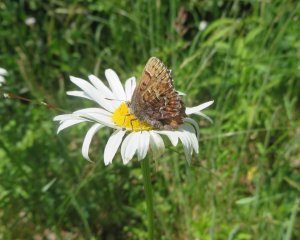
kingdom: Animalia
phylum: Arthropoda
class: Insecta
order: Lepidoptera
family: Lycaenidae
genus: Incisalia
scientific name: Incisalia niphon
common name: Eastern Pine Elfin
